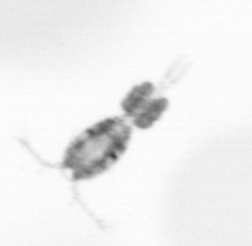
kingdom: Animalia
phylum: Arthropoda
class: Copepoda
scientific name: Copepoda
